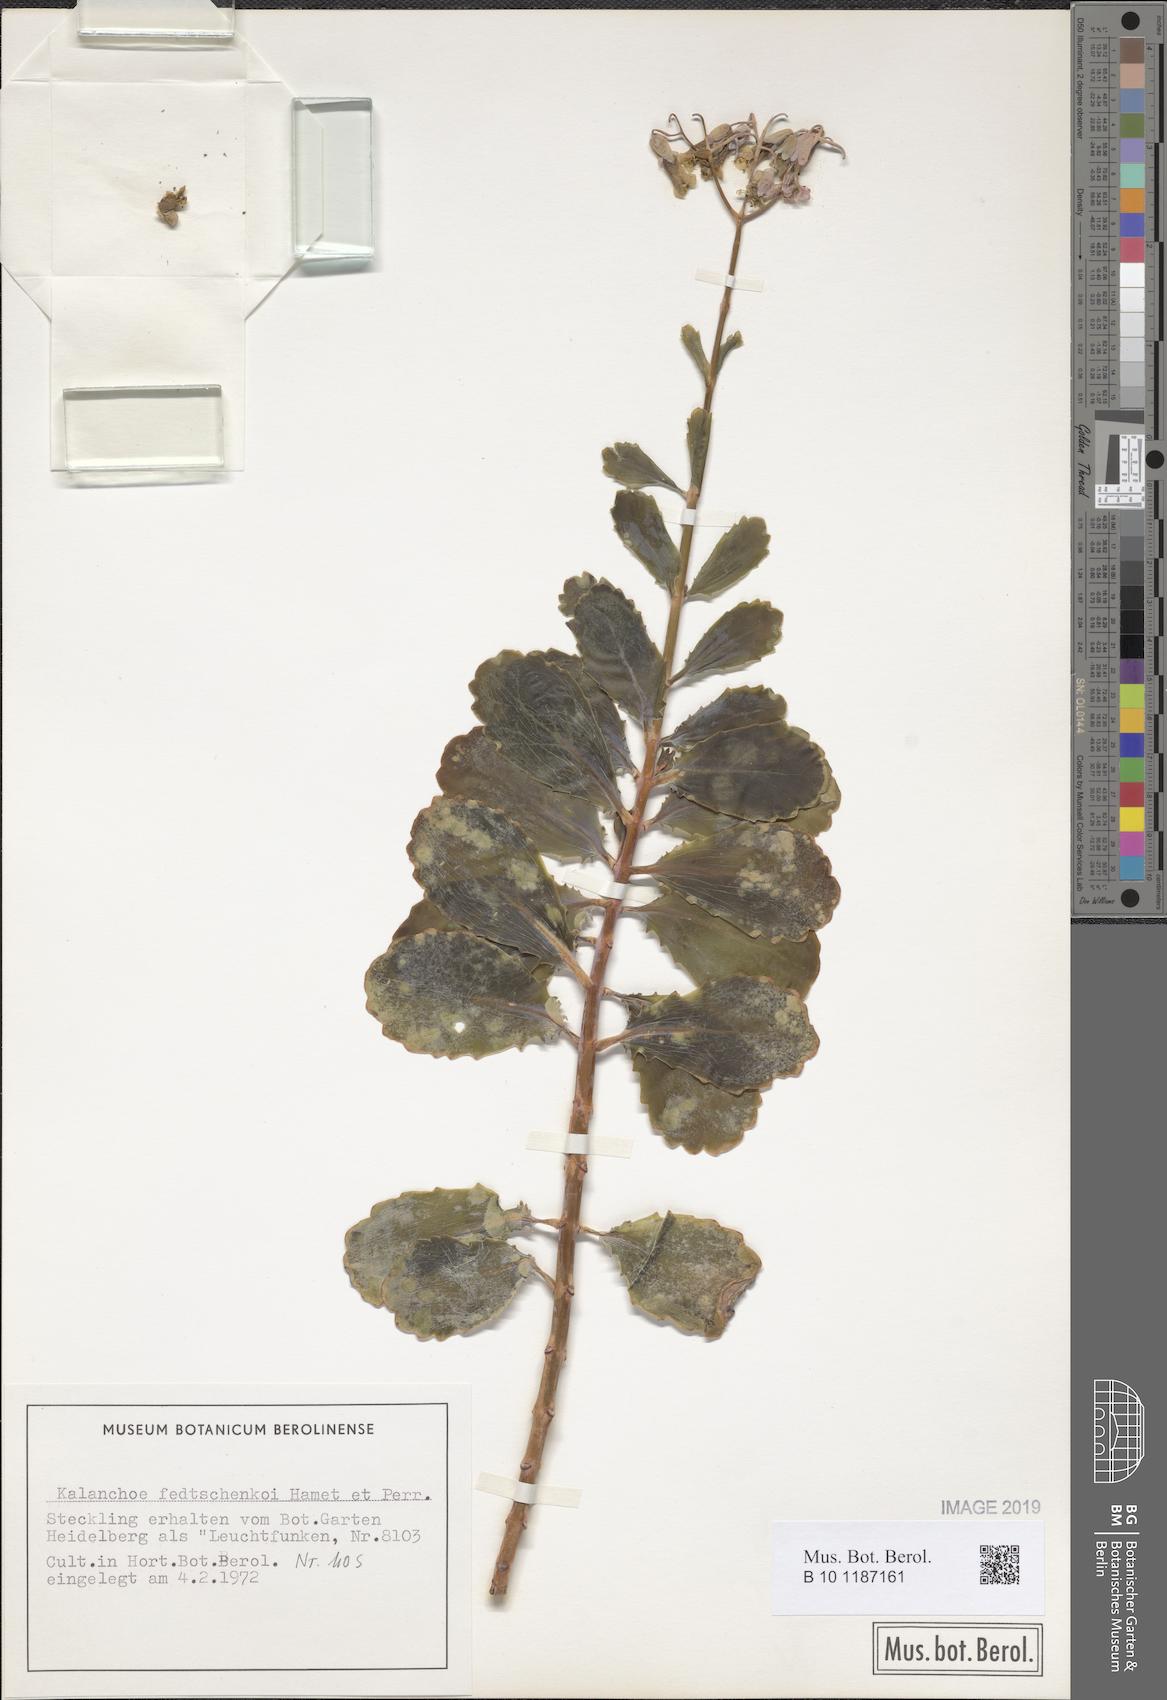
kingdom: Plantae
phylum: Tracheophyta
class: Magnoliopsida
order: Saxifragales
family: Crassulaceae
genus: Kalanchoe
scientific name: Kalanchoe fedtschenkoi
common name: Lavender scallops
